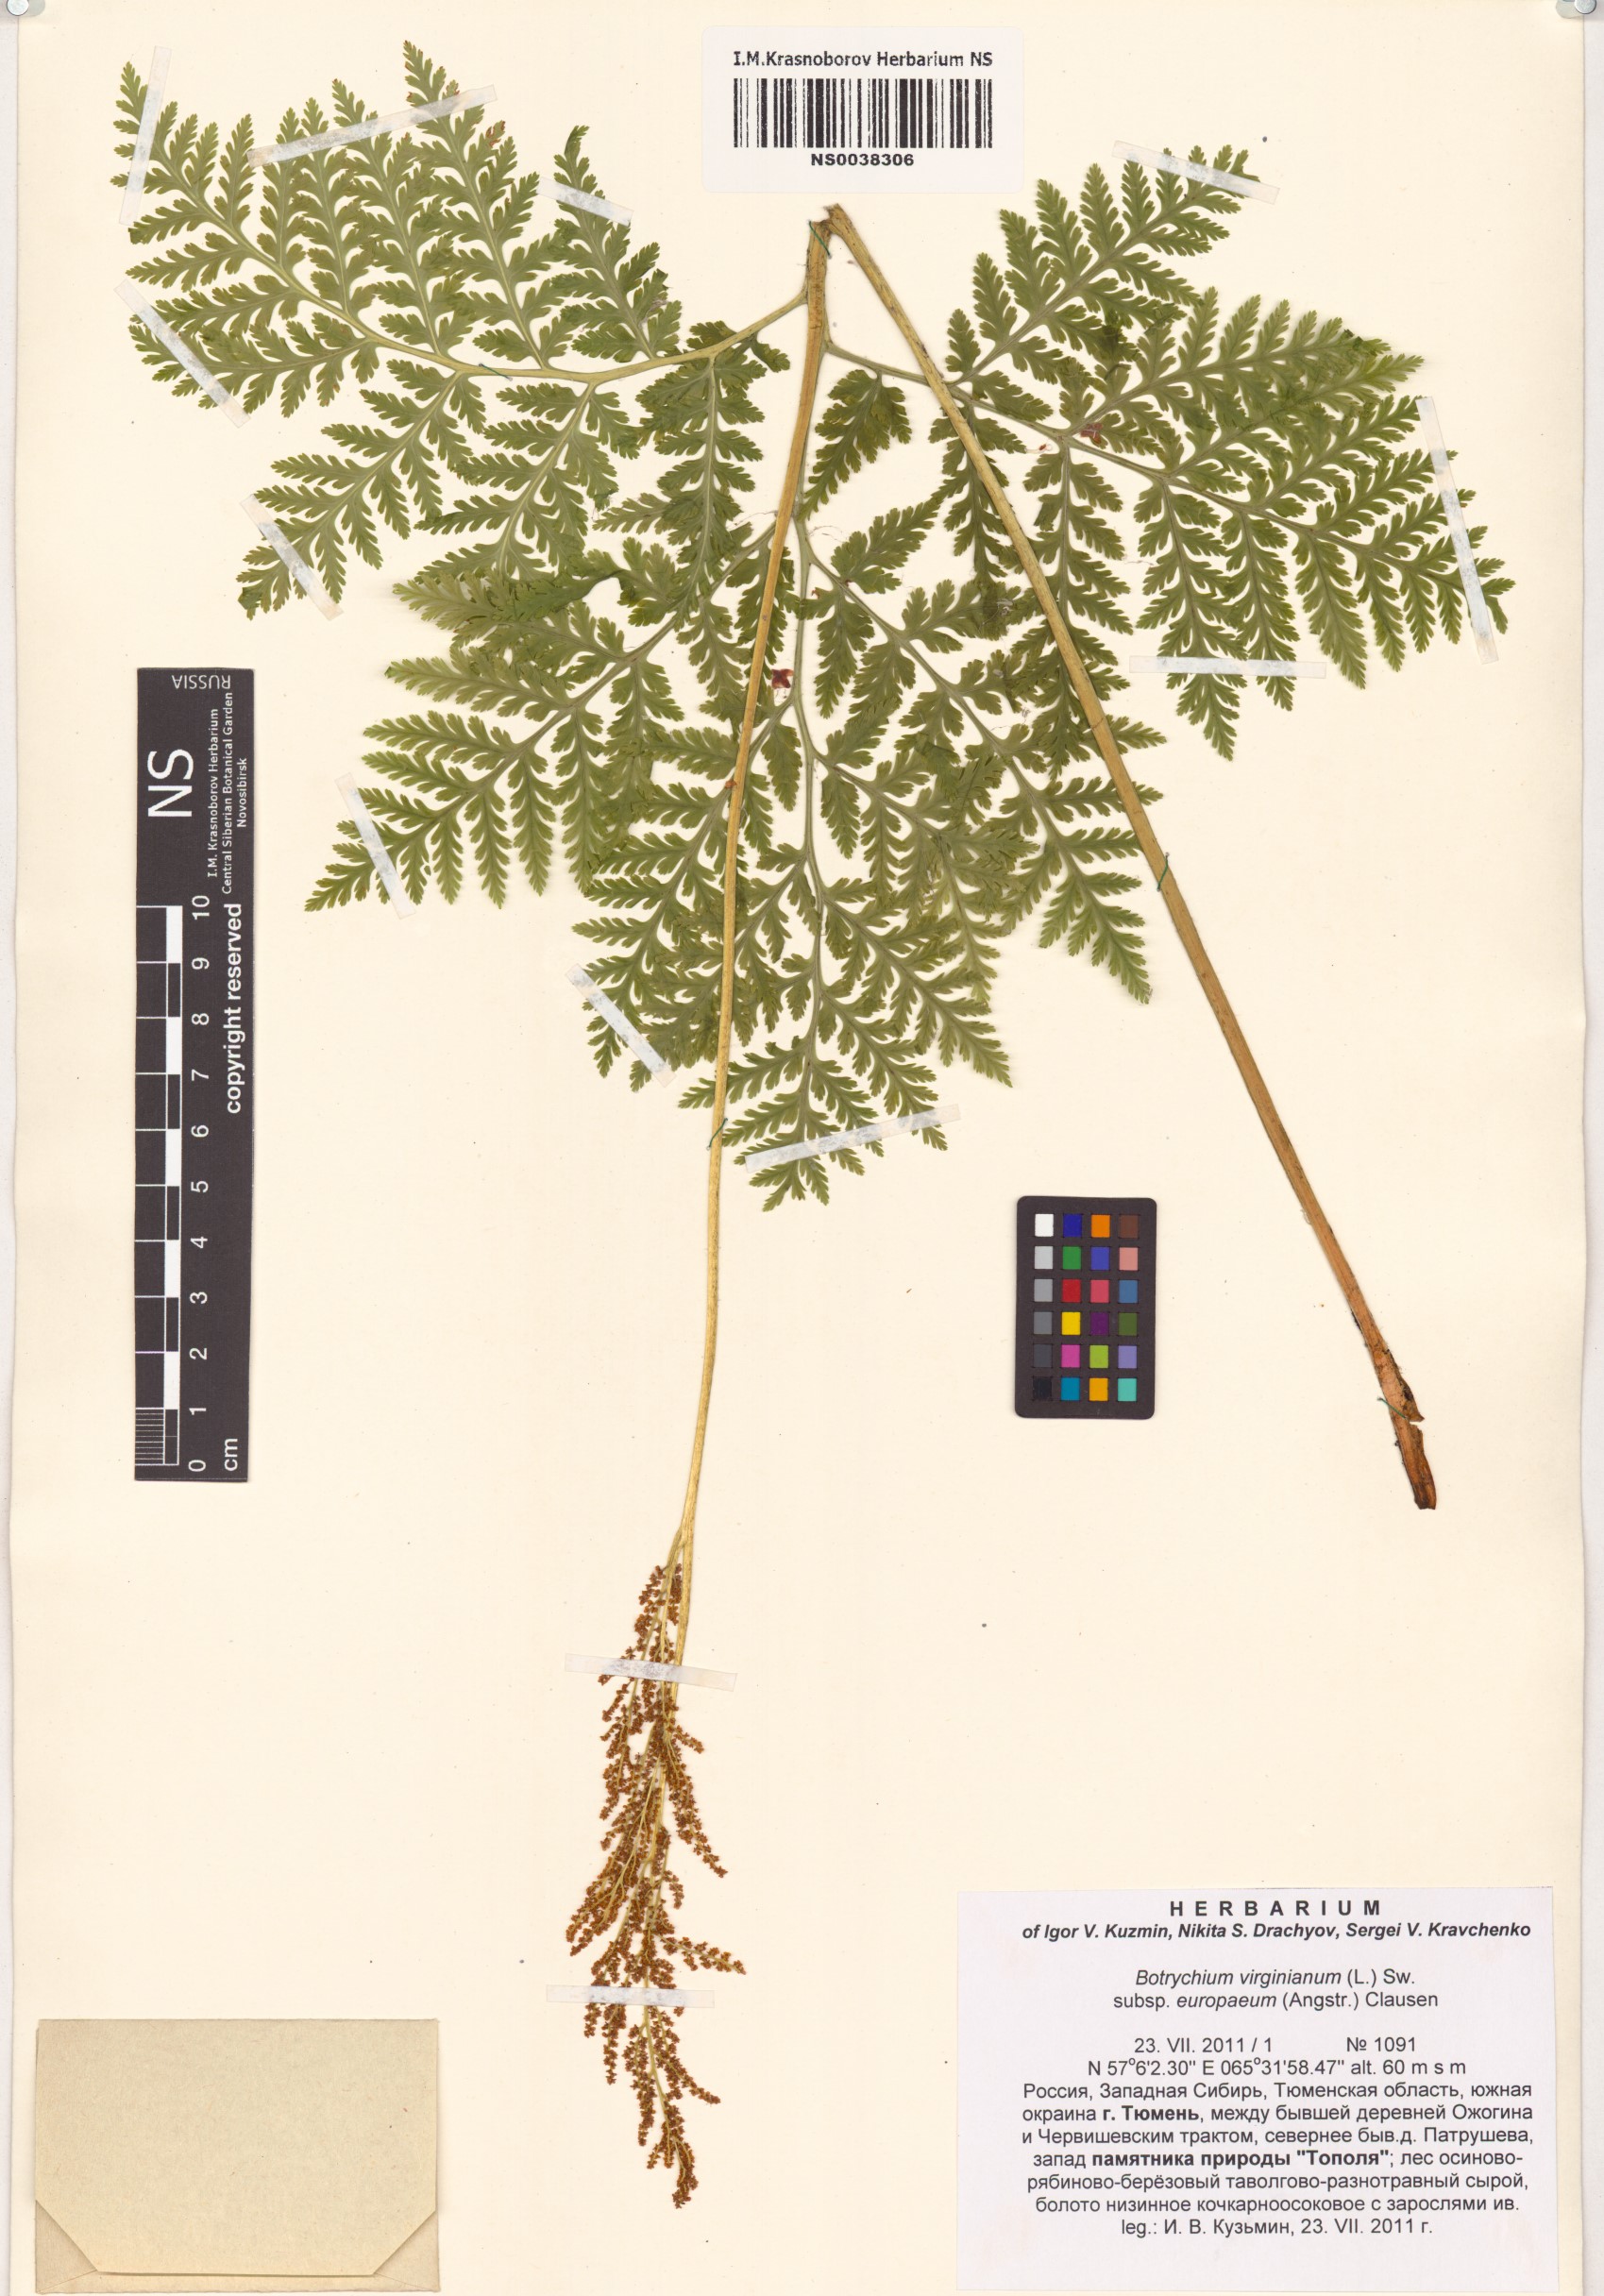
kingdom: Plantae
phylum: Tracheophyta
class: Polypodiopsida
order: Ophioglossales
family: Ophioglossaceae
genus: Botrypus
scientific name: Botrypus virginianus
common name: Common grapefern
